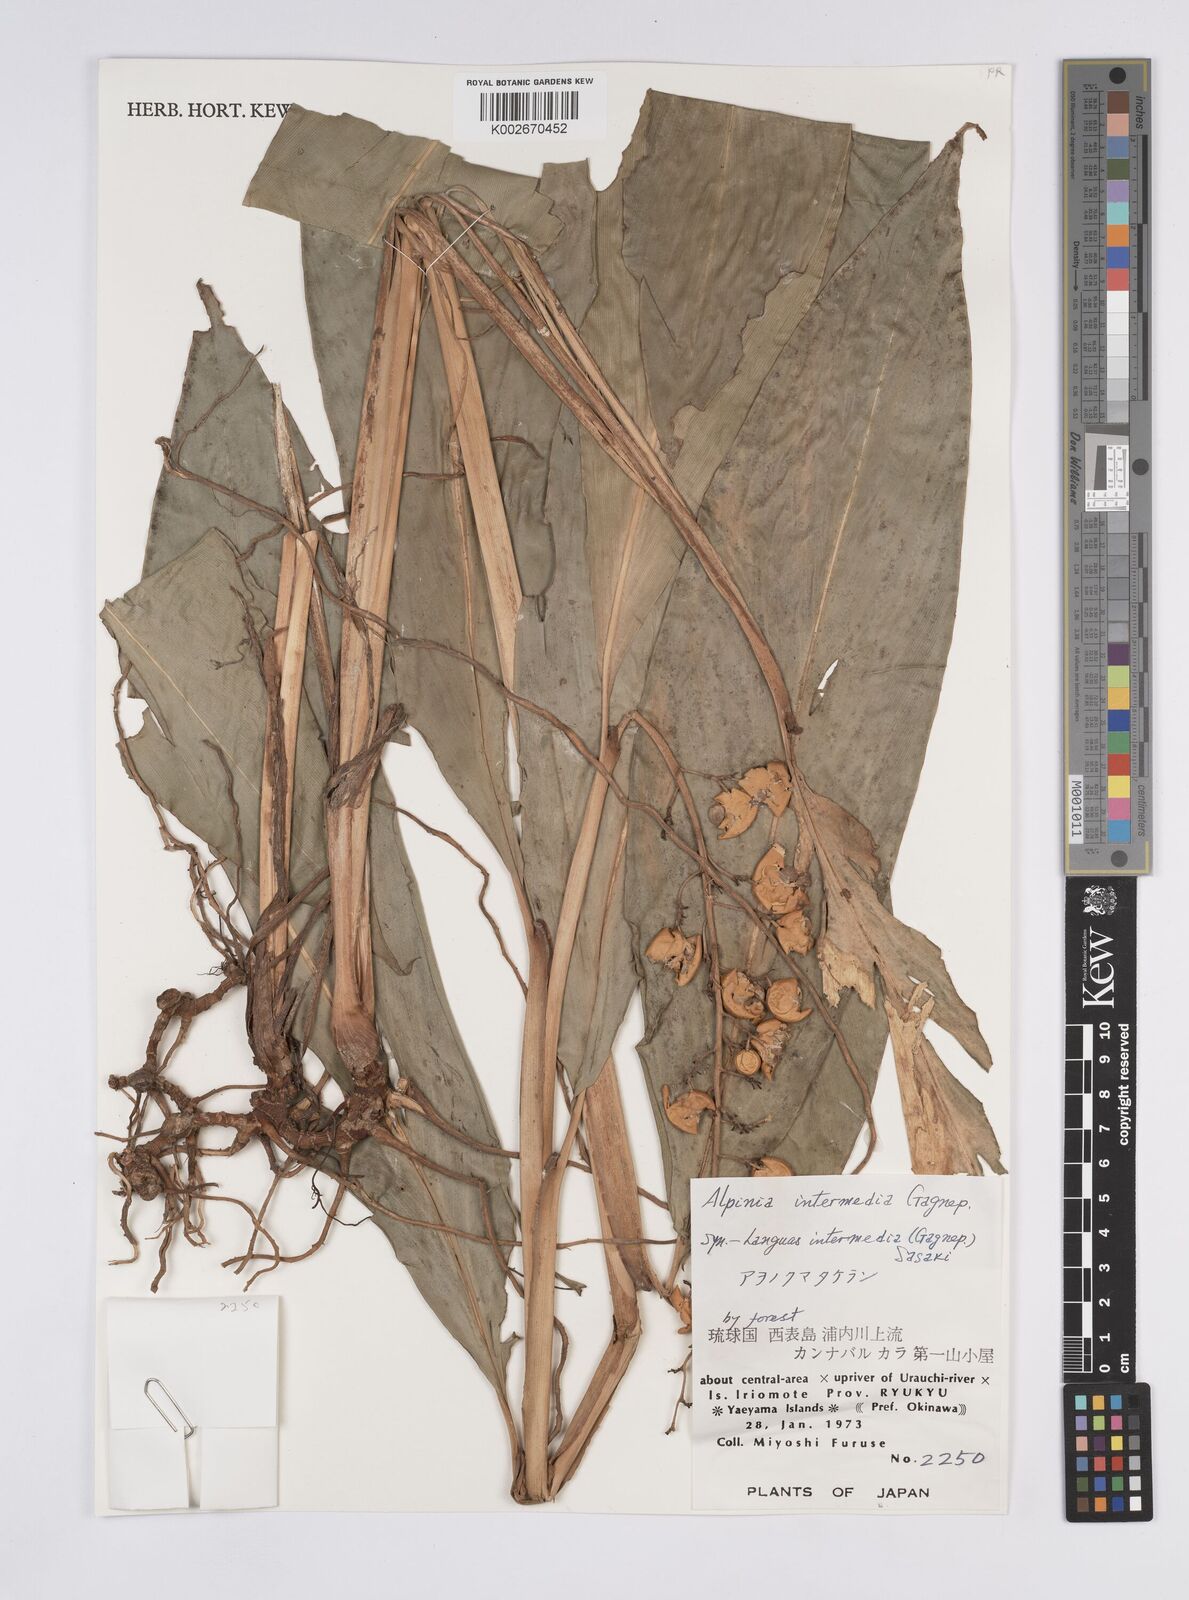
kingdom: Plantae
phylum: Tracheophyta
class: Liliopsida
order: Zingiberales
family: Zingiberaceae
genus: Alpinia
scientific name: Alpinia intermedia
